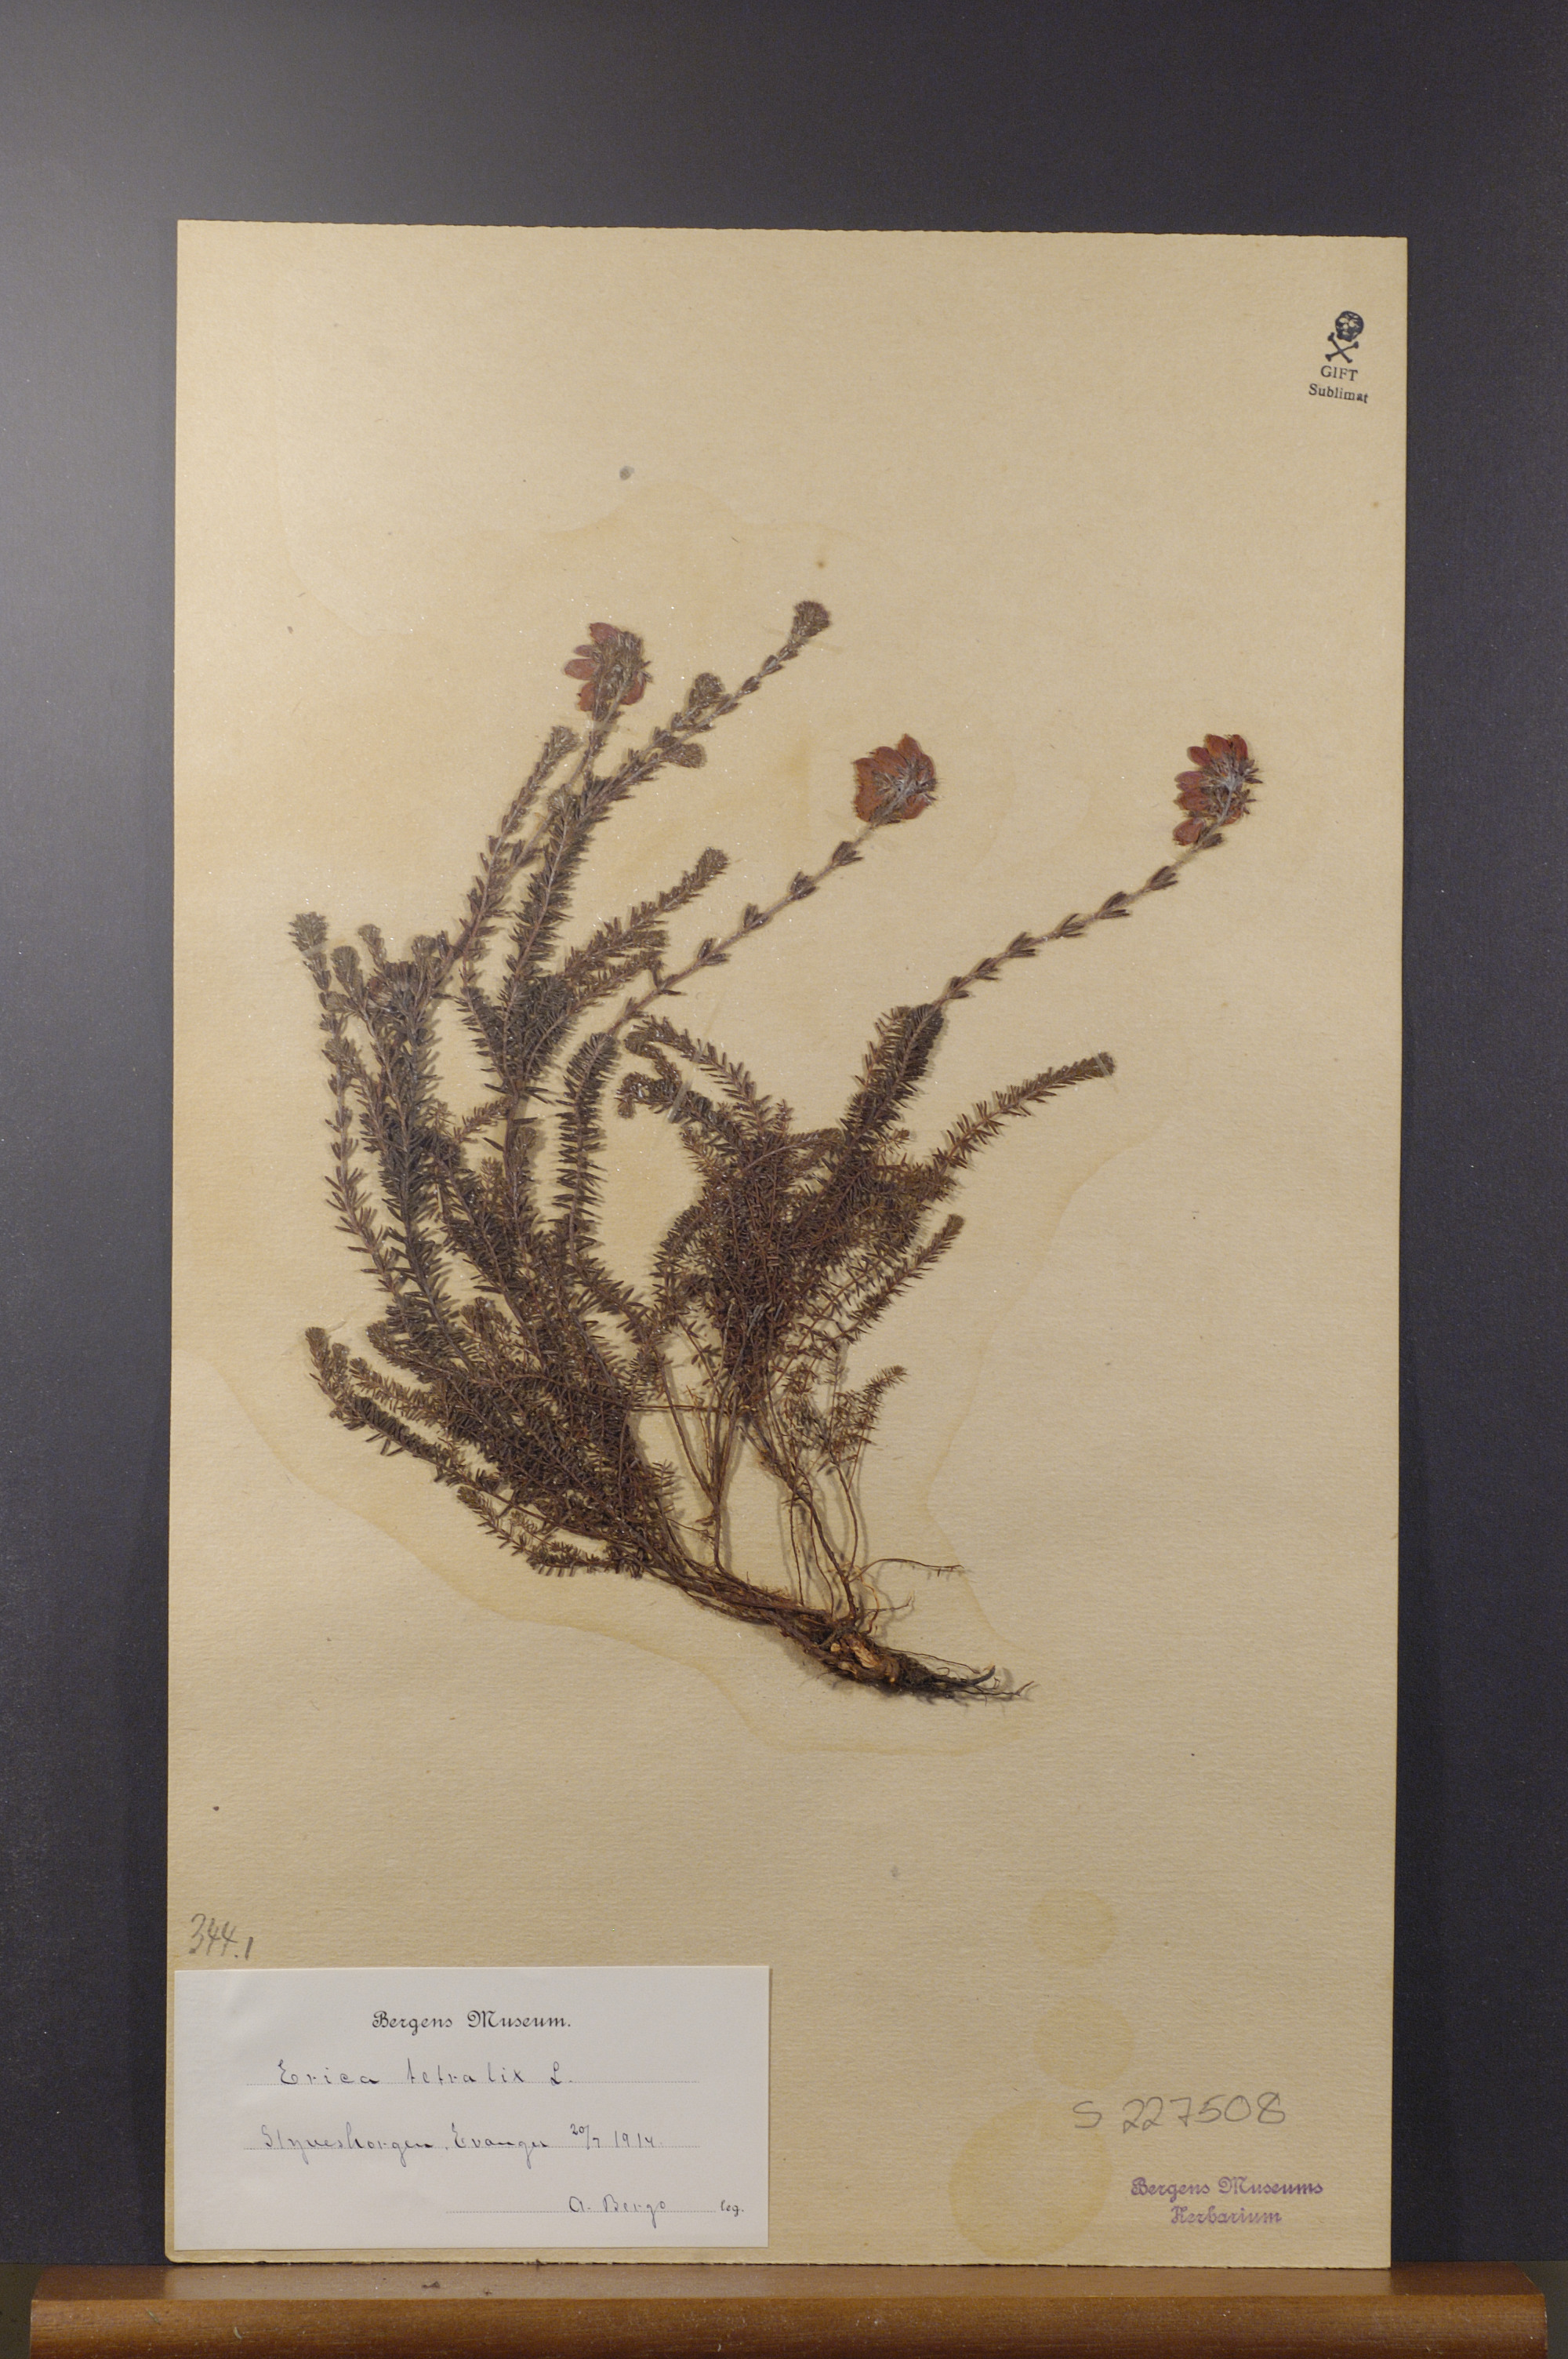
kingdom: Plantae
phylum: Tracheophyta
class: Magnoliopsida
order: Ericales
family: Ericaceae
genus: Erica
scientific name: Erica tetralix
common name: Cross-leaved heath
